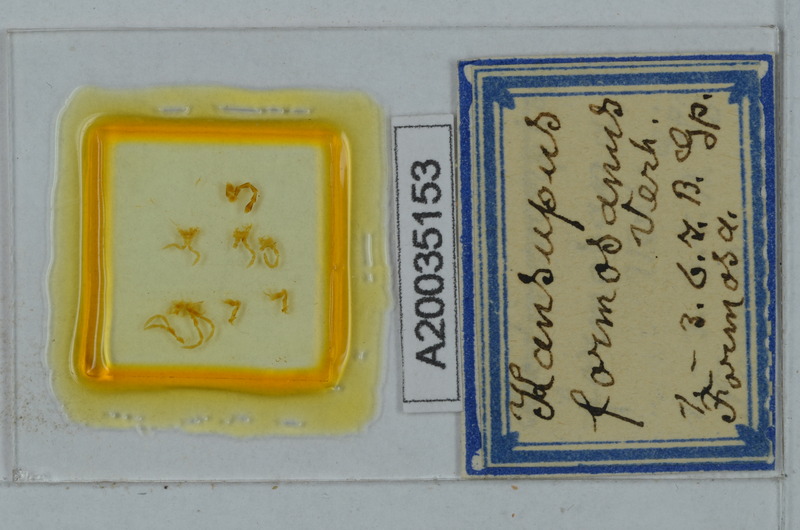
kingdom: Animalia
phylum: Arthropoda
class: Diplopoda
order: Polydesmida
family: Paradoxosomatidae
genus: Kronopolites
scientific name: Kronopolites formosanus
